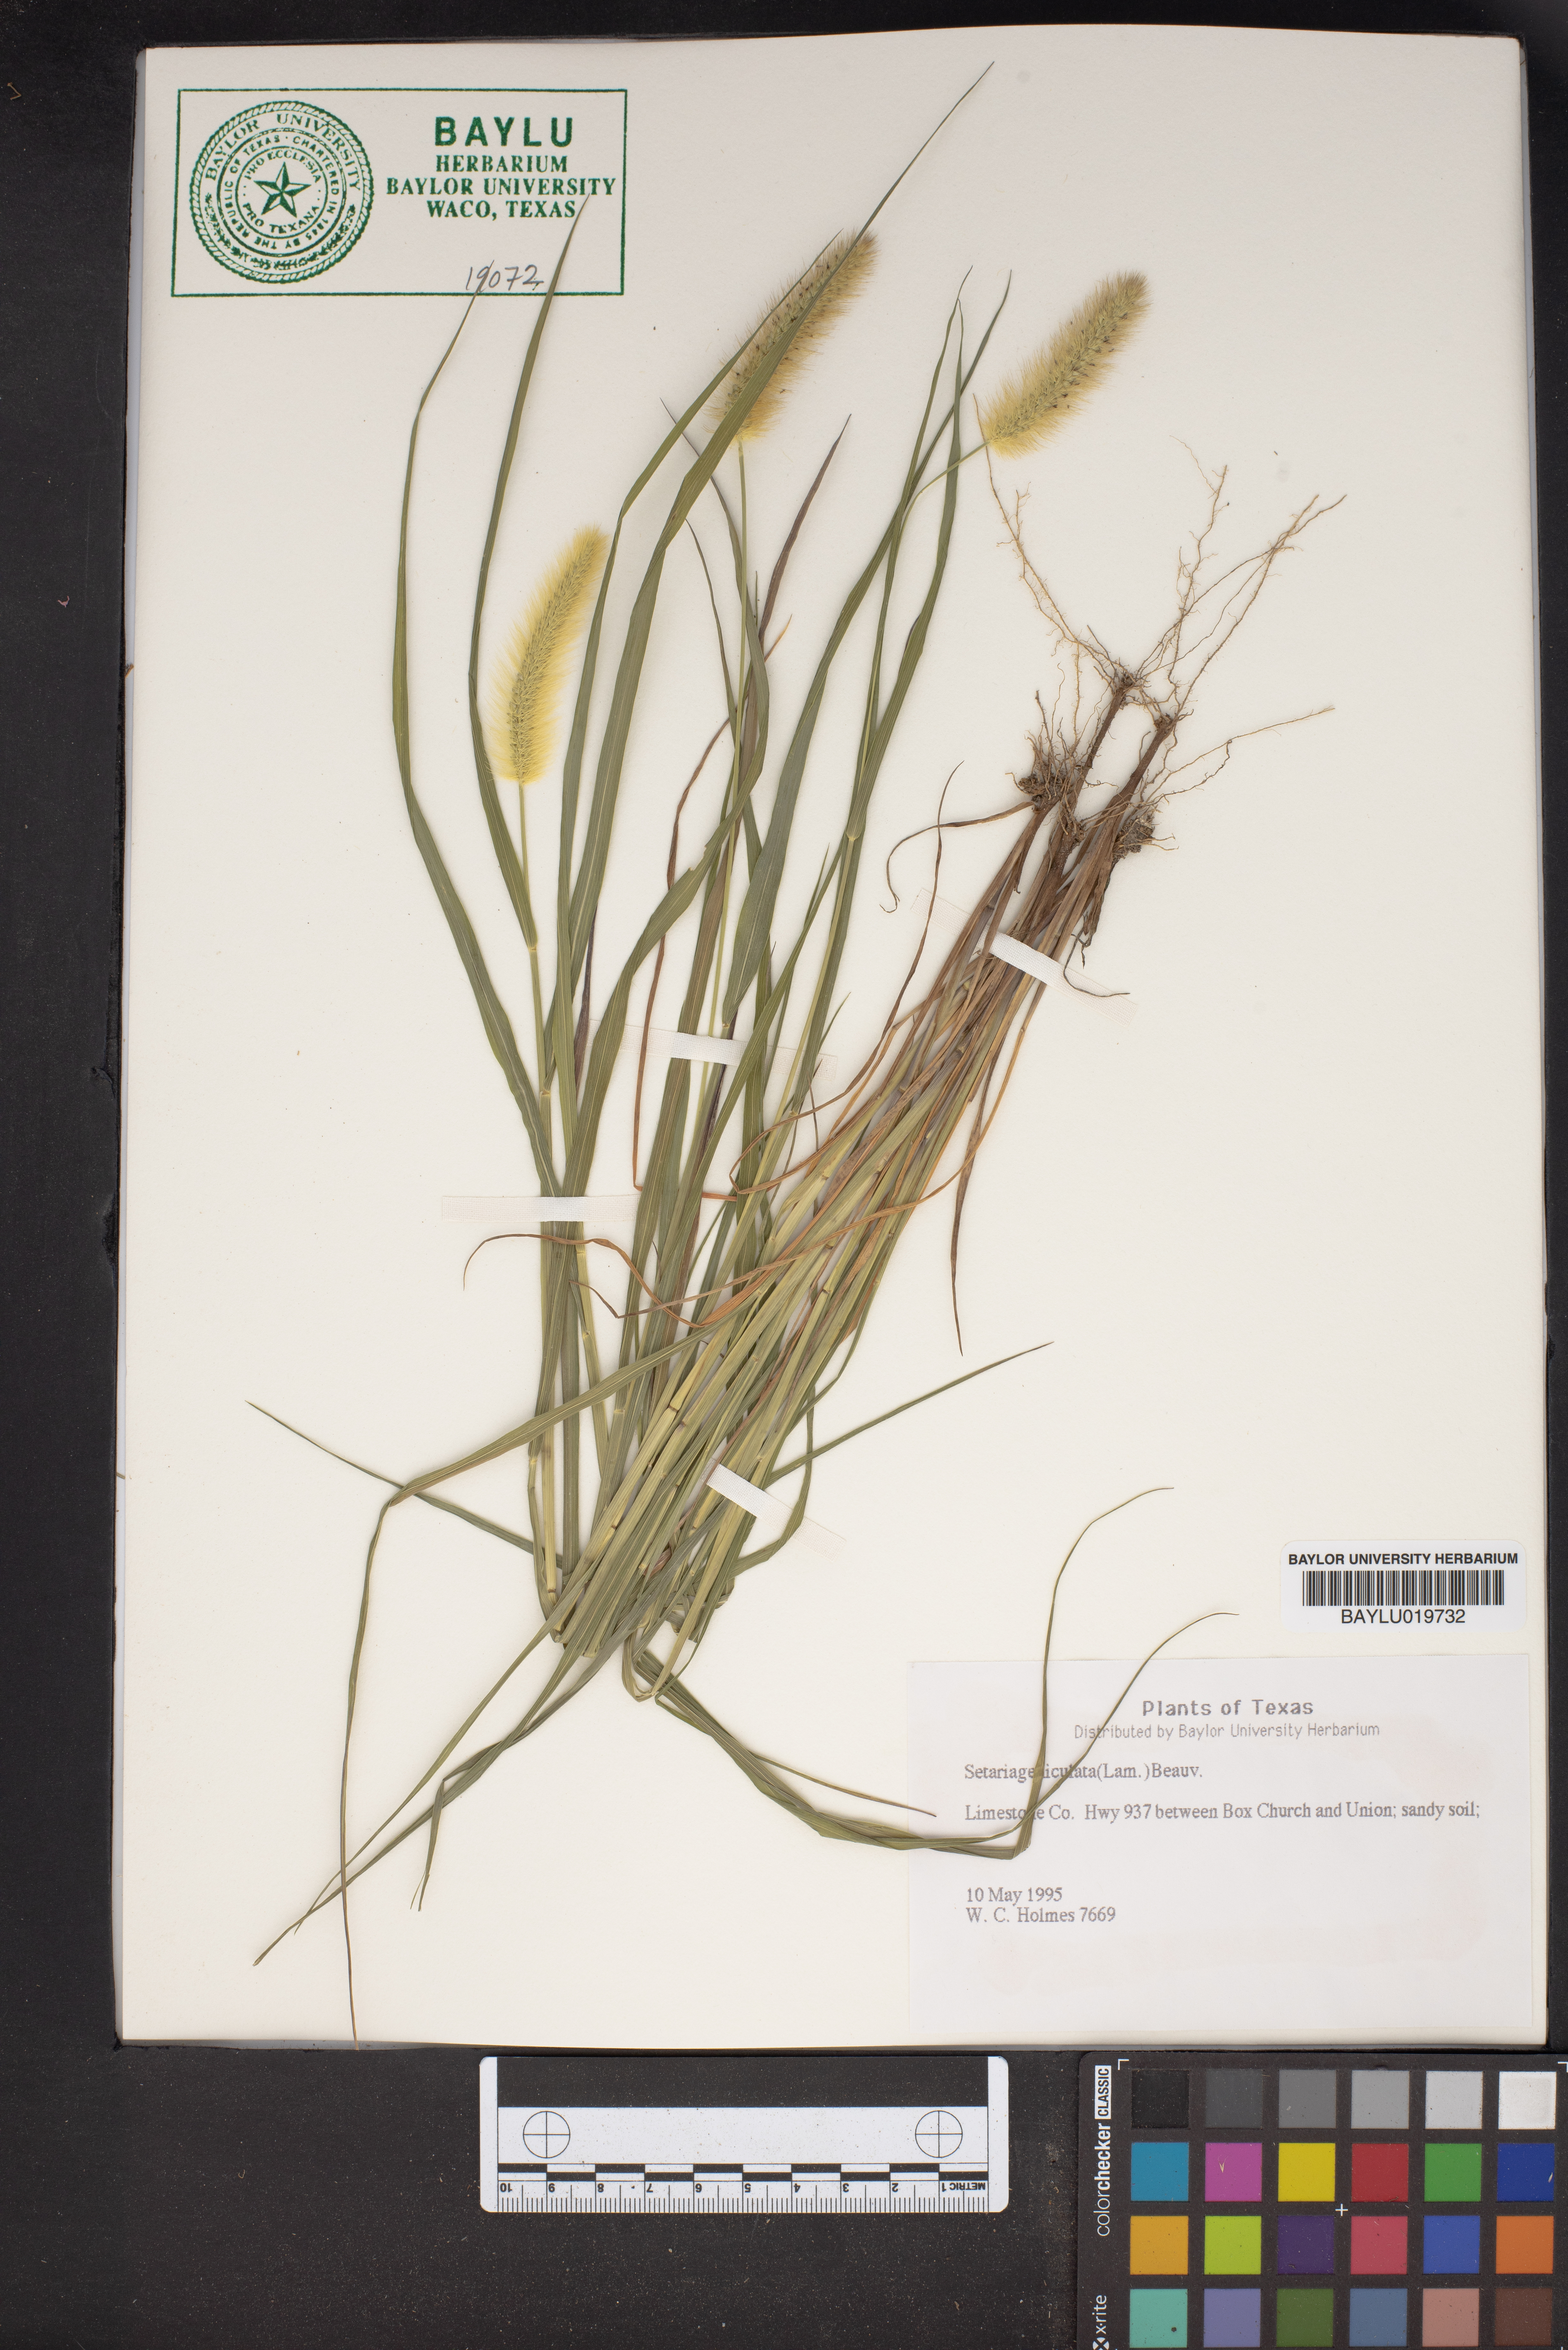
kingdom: Plantae
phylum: Tracheophyta
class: Liliopsida
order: Poales
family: Poaceae
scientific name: Poaceae
